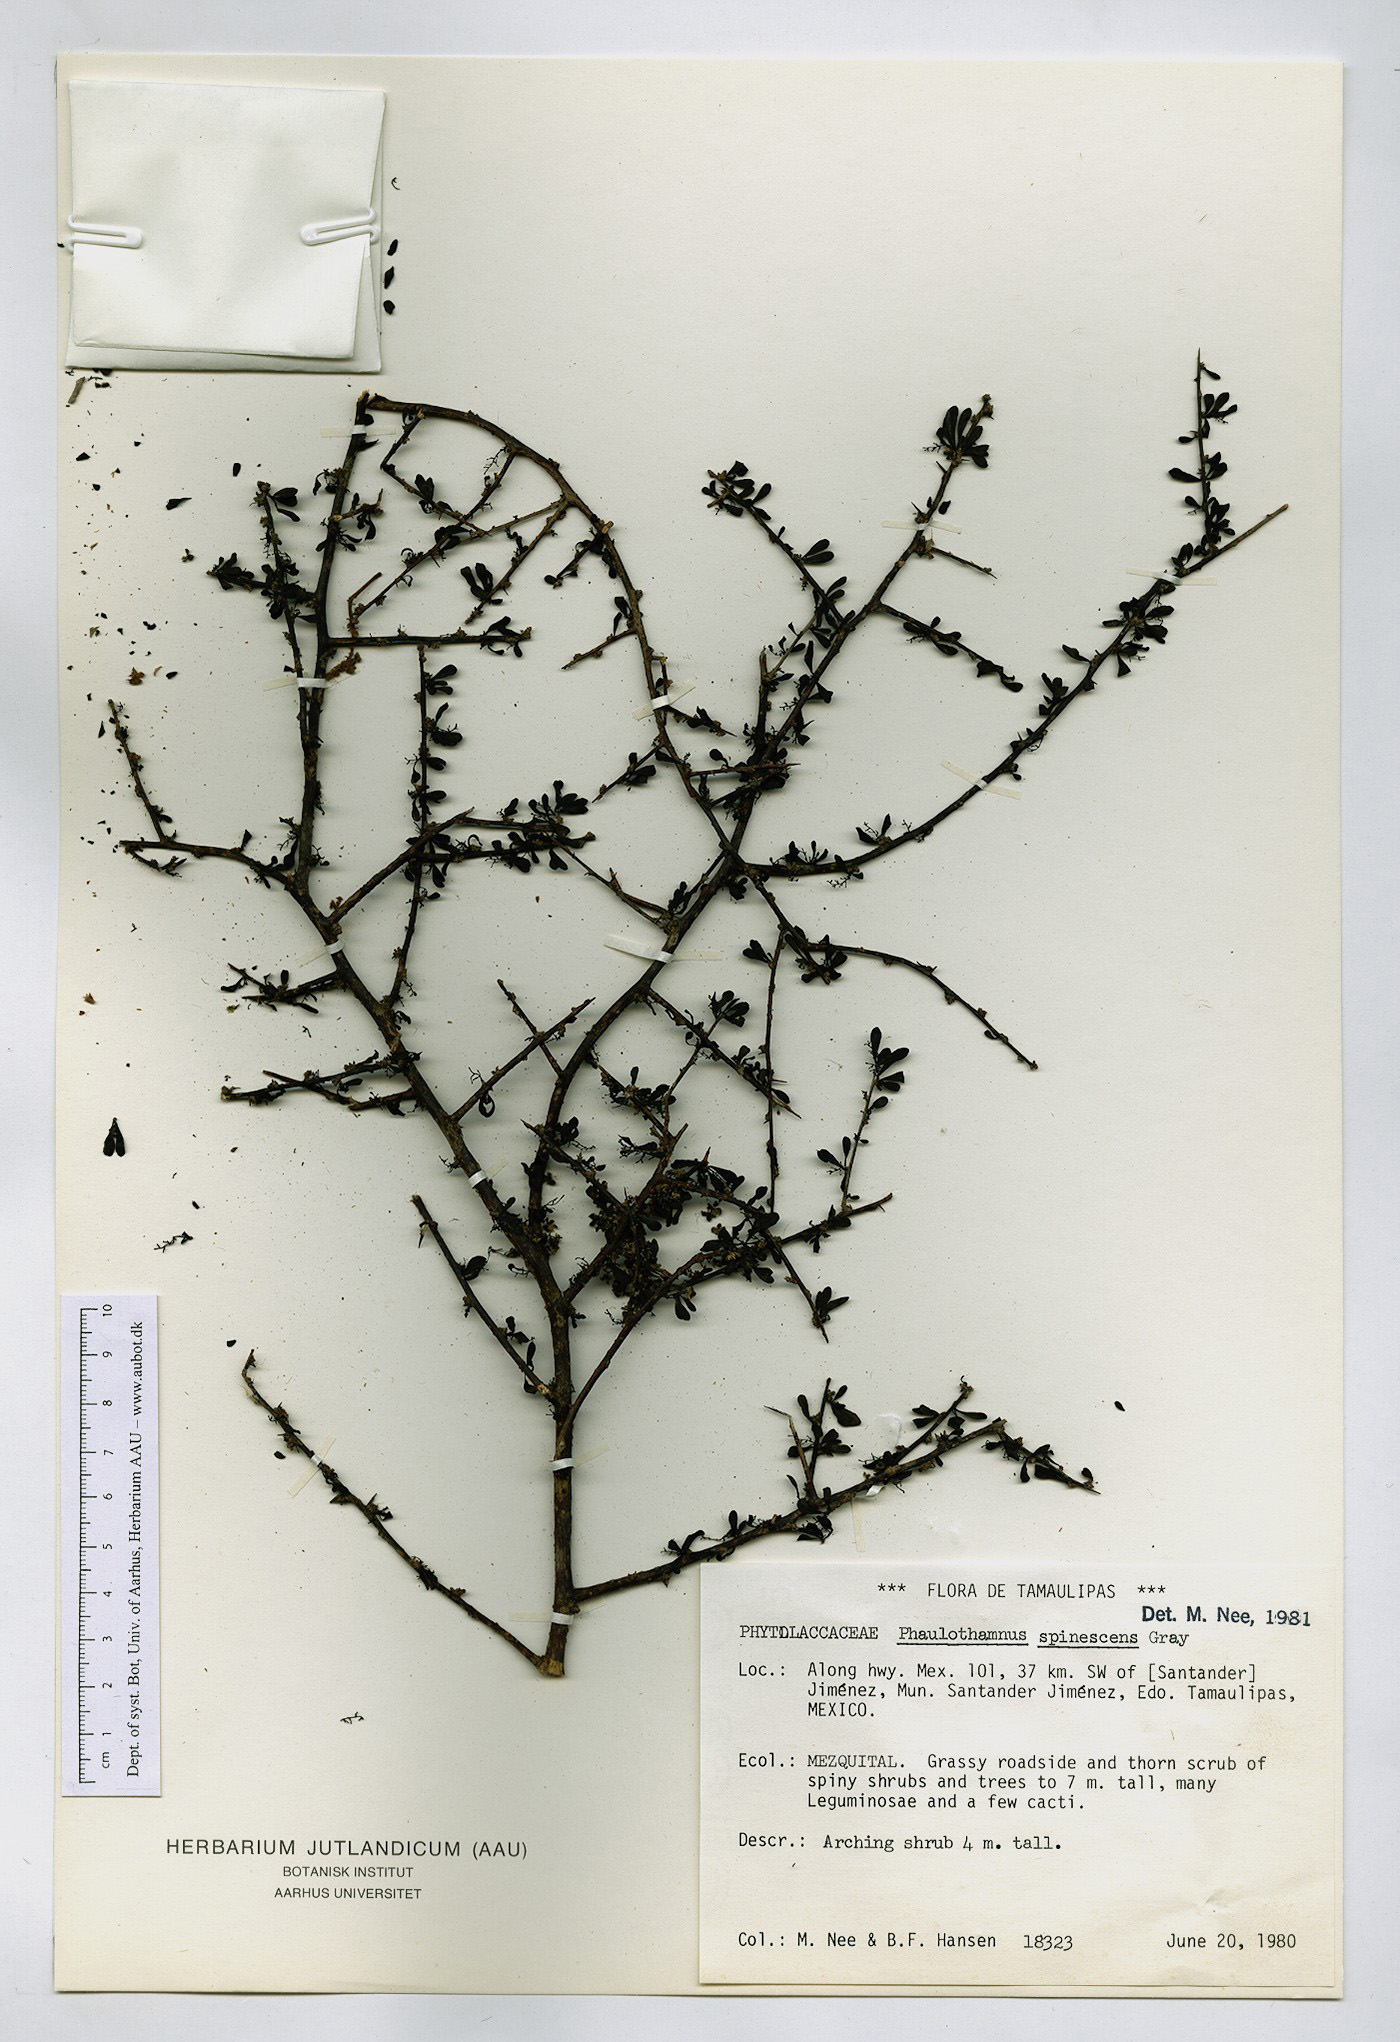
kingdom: Plantae
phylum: Tracheophyta
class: Magnoliopsida
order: Caryophyllales
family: Achatocarpaceae
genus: Phaulothamnus
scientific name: Phaulothamnus spinescens
